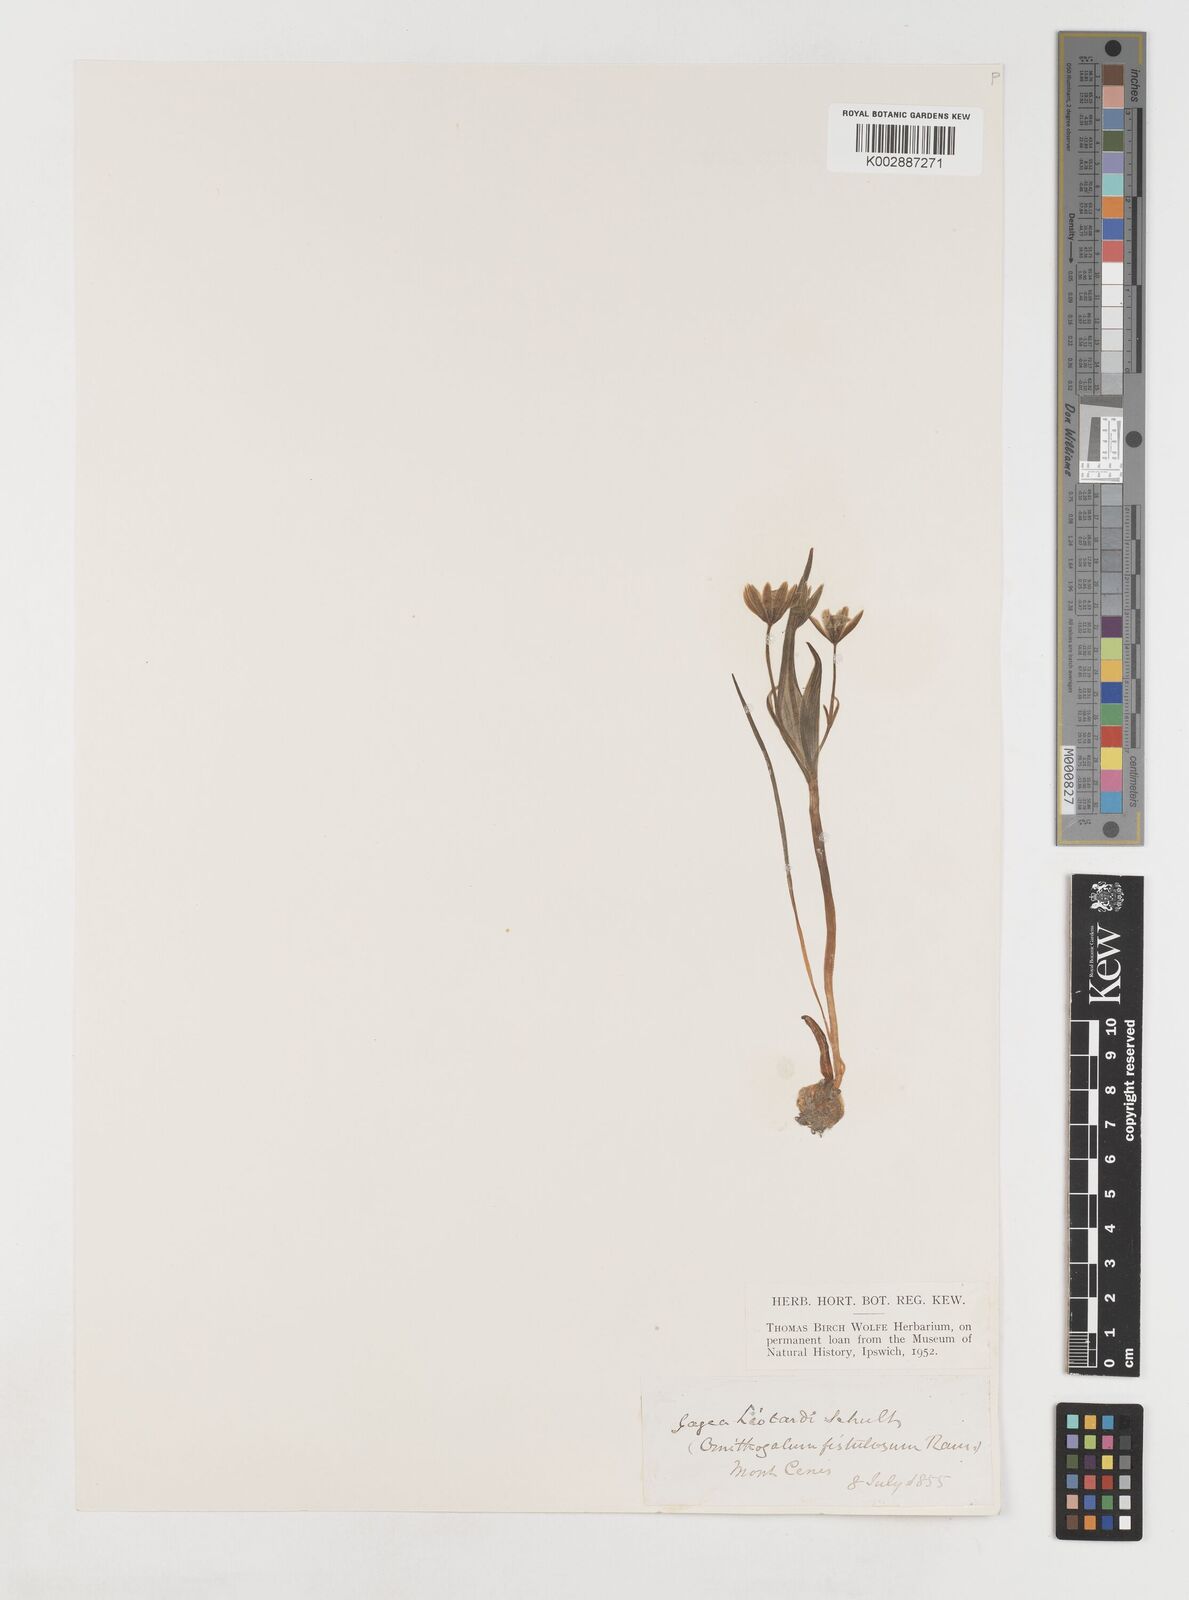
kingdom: Plantae
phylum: Tracheophyta
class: Liliopsida
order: Liliales
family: Liliaceae
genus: Gagea
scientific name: Gagea bohemica
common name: Early star-of-bethlehem
